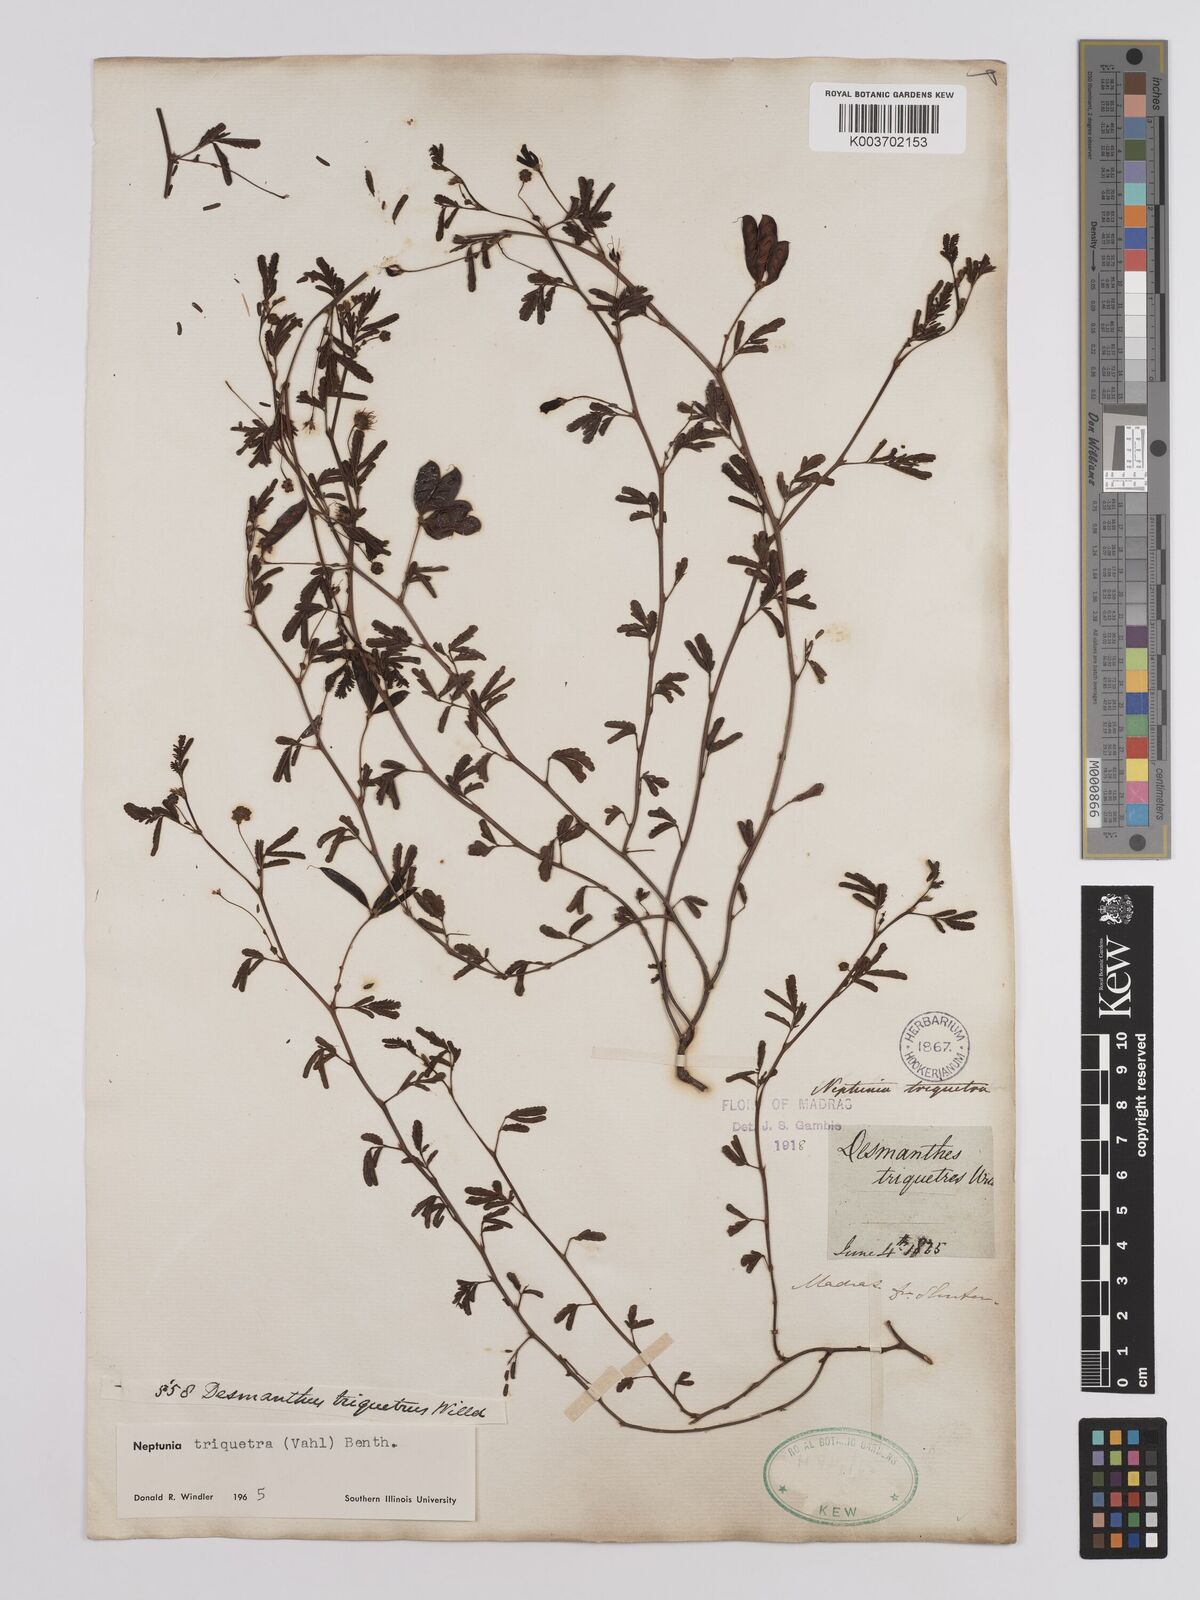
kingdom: Plantae
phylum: Tracheophyta
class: Magnoliopsida
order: Fabales
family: Fabaceae
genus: Neptunia
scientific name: Neptunia triquetra
